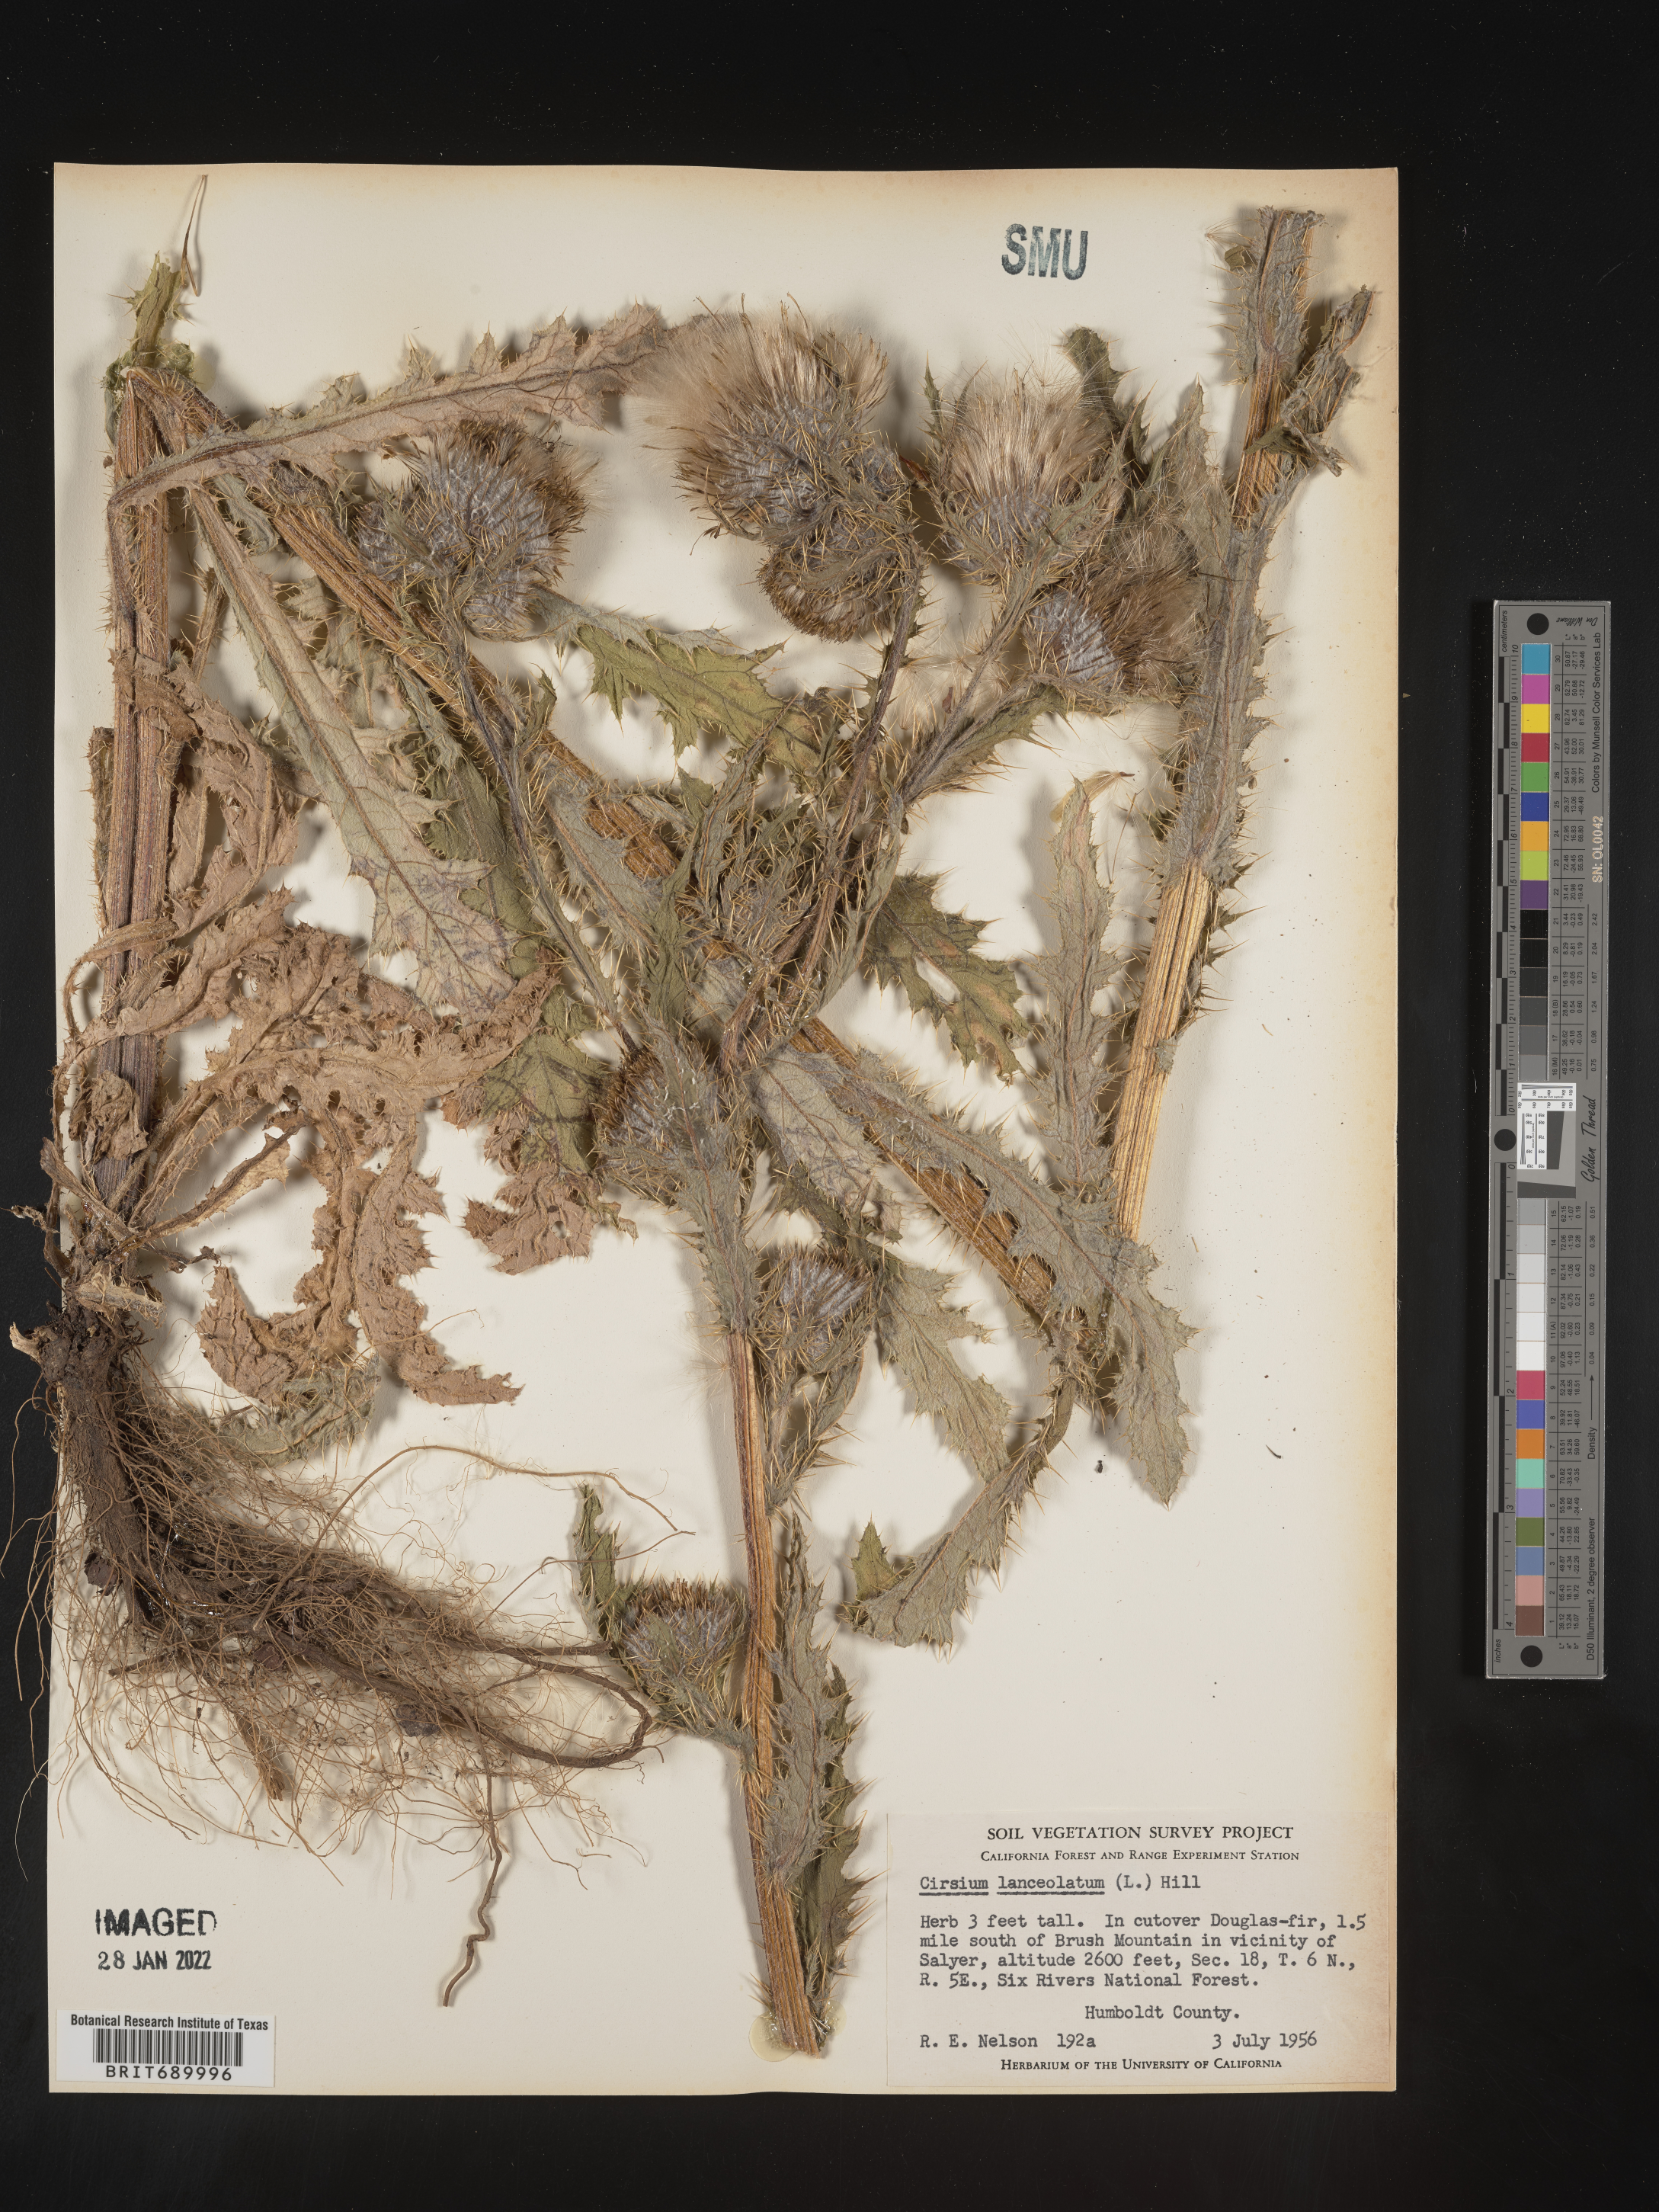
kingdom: Plantae
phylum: Tracheophyta
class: Magnoliopsida
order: Asterales
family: Asteraceae
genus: Cirsium
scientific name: Cirsium vulgare
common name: Bull thistle
